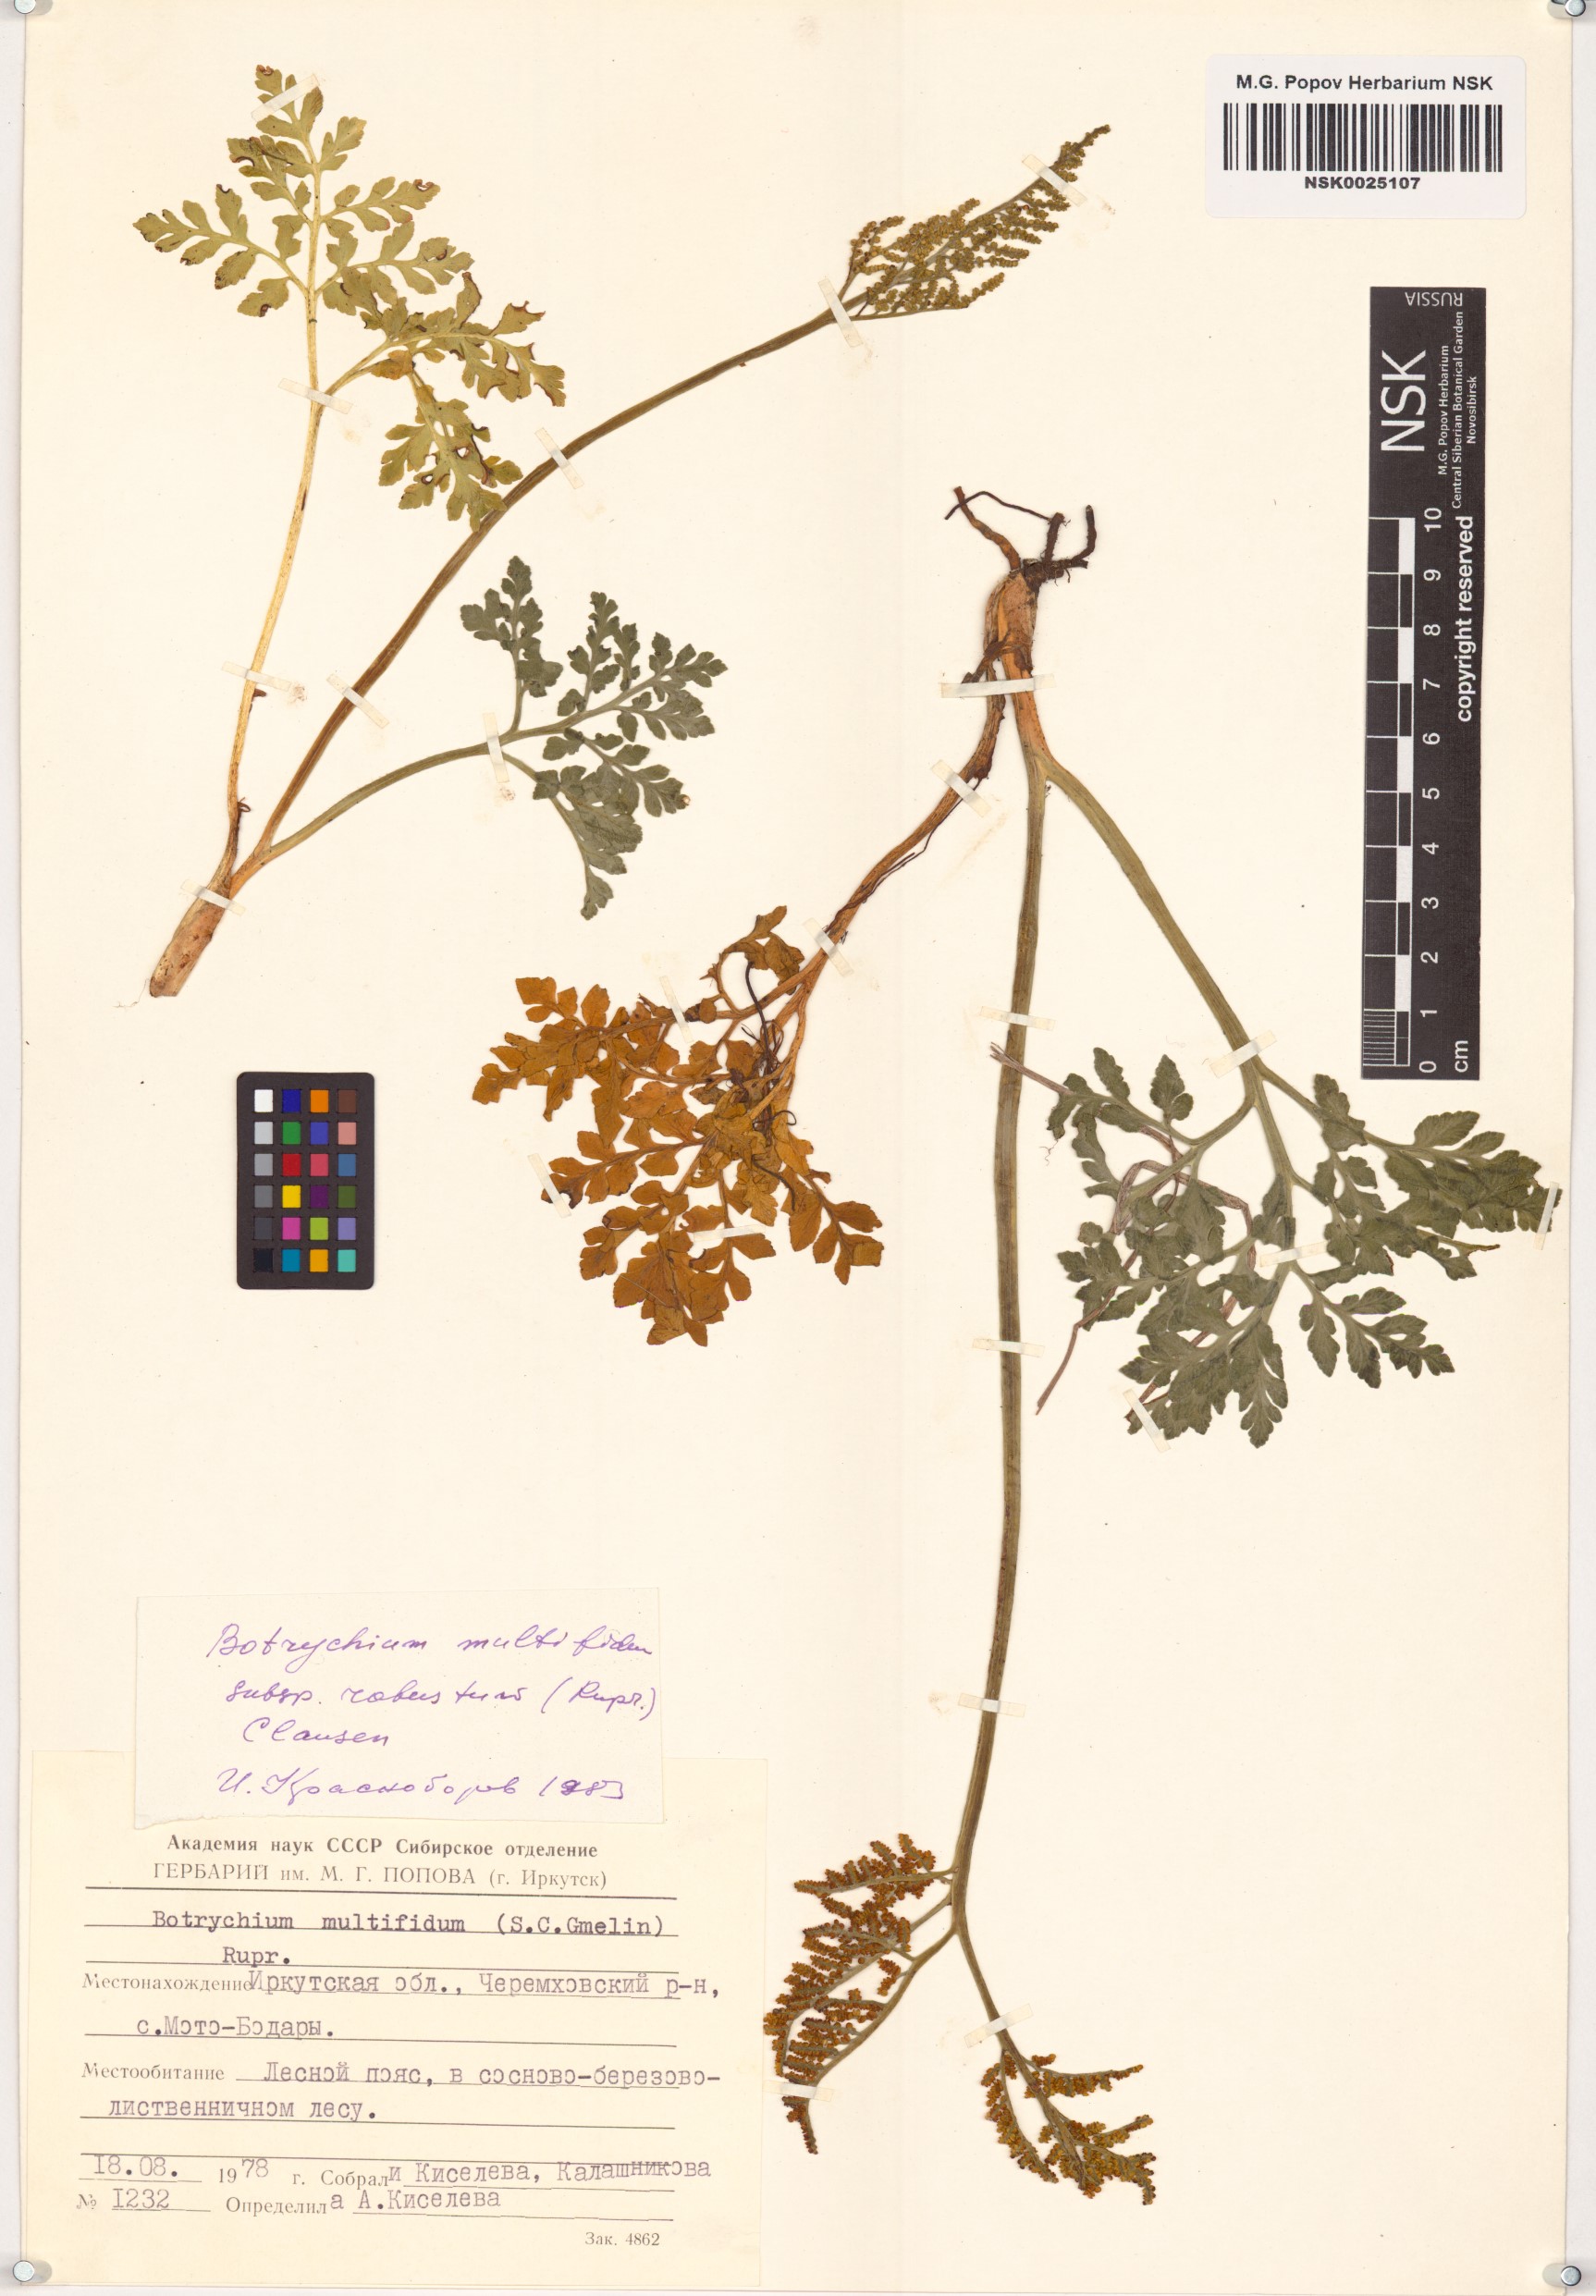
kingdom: Plantae
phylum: Tracheophyta
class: Polypodiopsida
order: Ophioglossales
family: Ophioglossaceae
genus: Sceptridium
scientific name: Sceptridium multifidum
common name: Leathery grape fern
